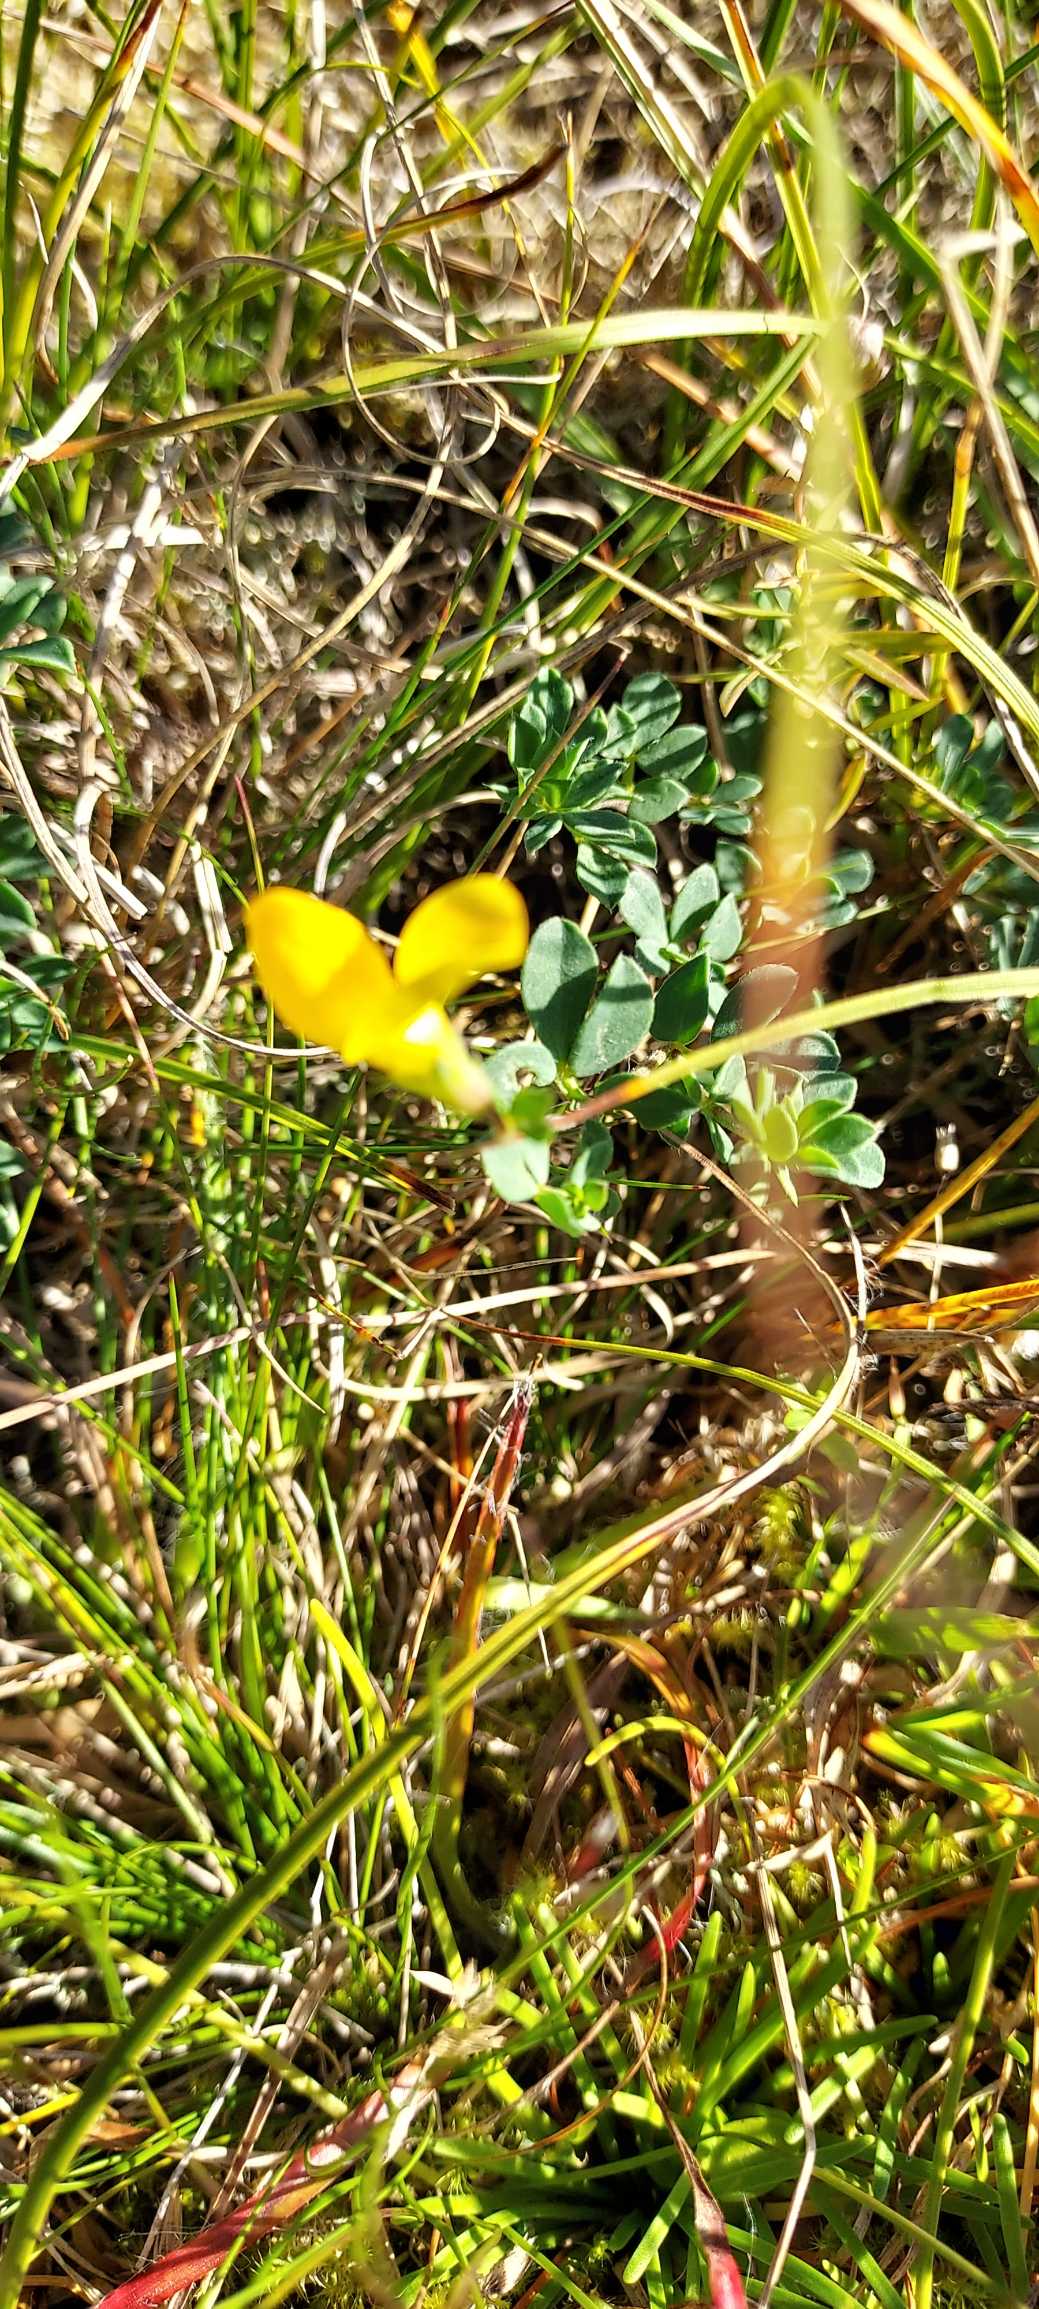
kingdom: Plantae
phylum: Tracheophyta
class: Magnoliopsida
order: Fabales
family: Fabaceae
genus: Lotus
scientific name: Lotus corniculatus
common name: Almindelig kællingetand
